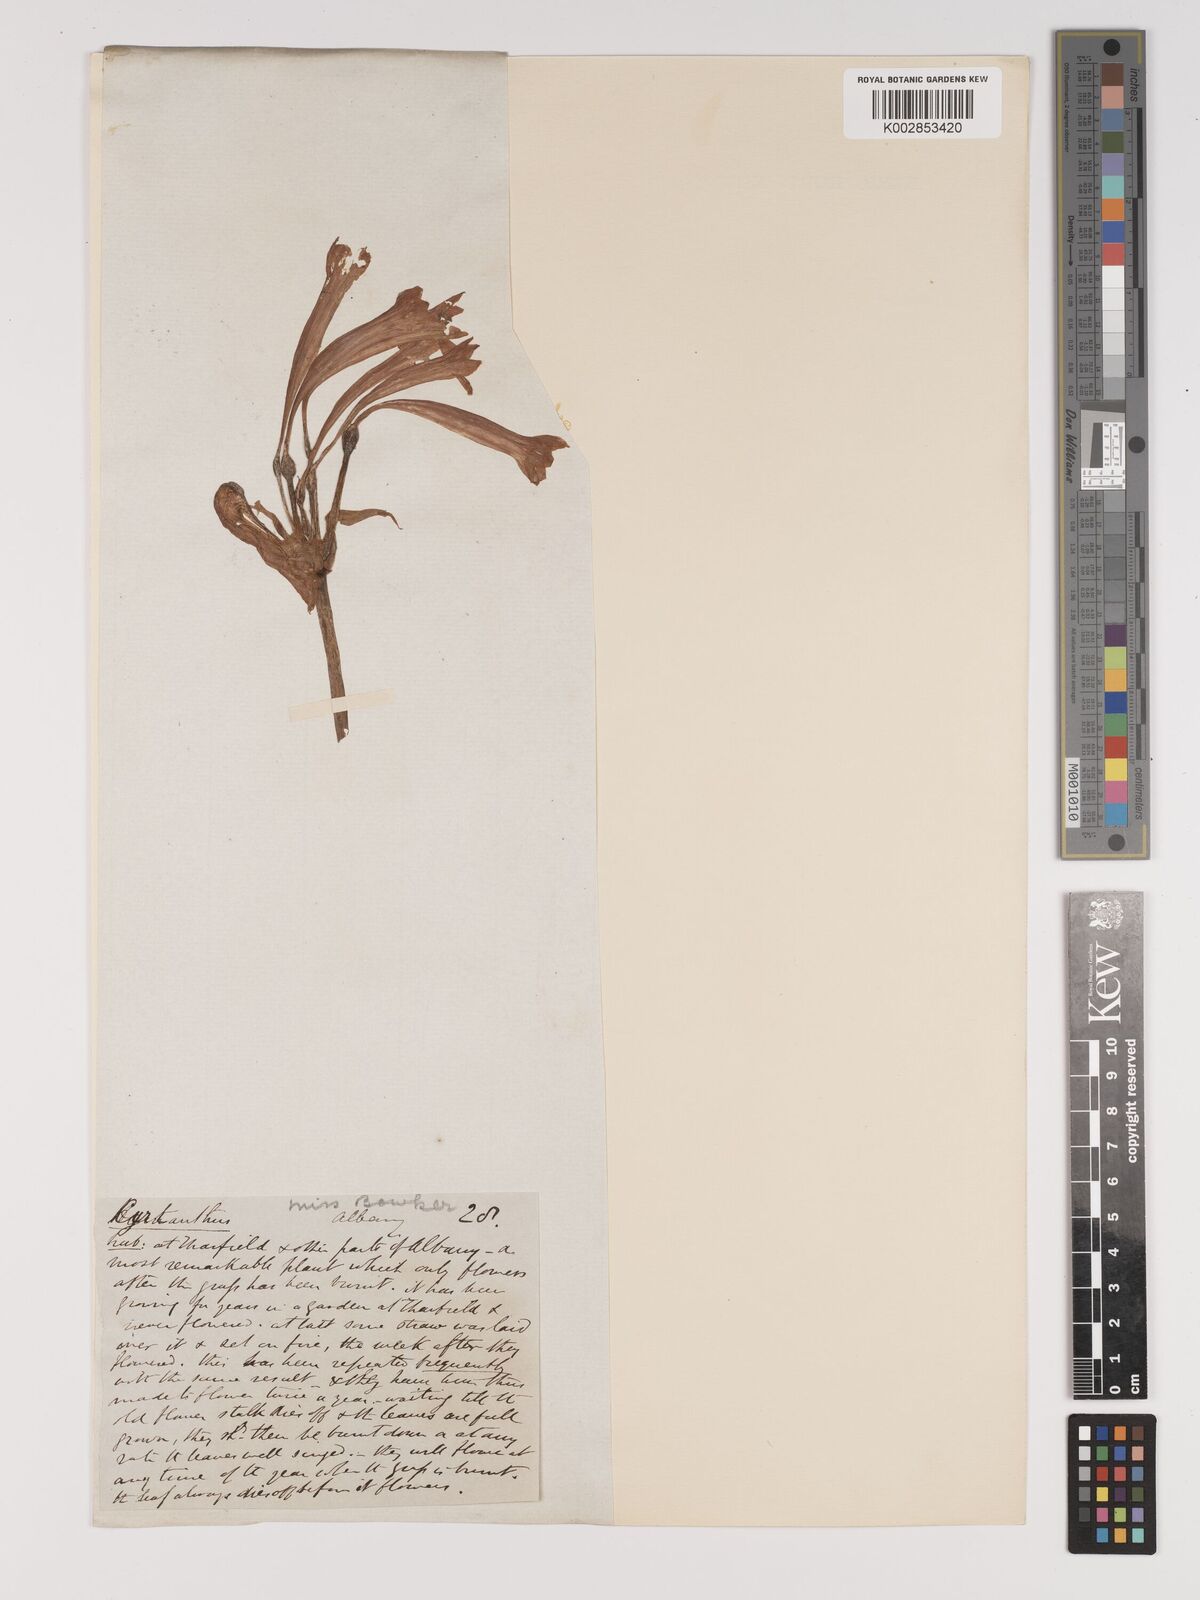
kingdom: Plantae
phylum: Tracheophyta
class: Liliopsida
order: Asparagales
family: Amaryllidaceae
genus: Cyrtanthus
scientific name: Cyrtanthus contractus
